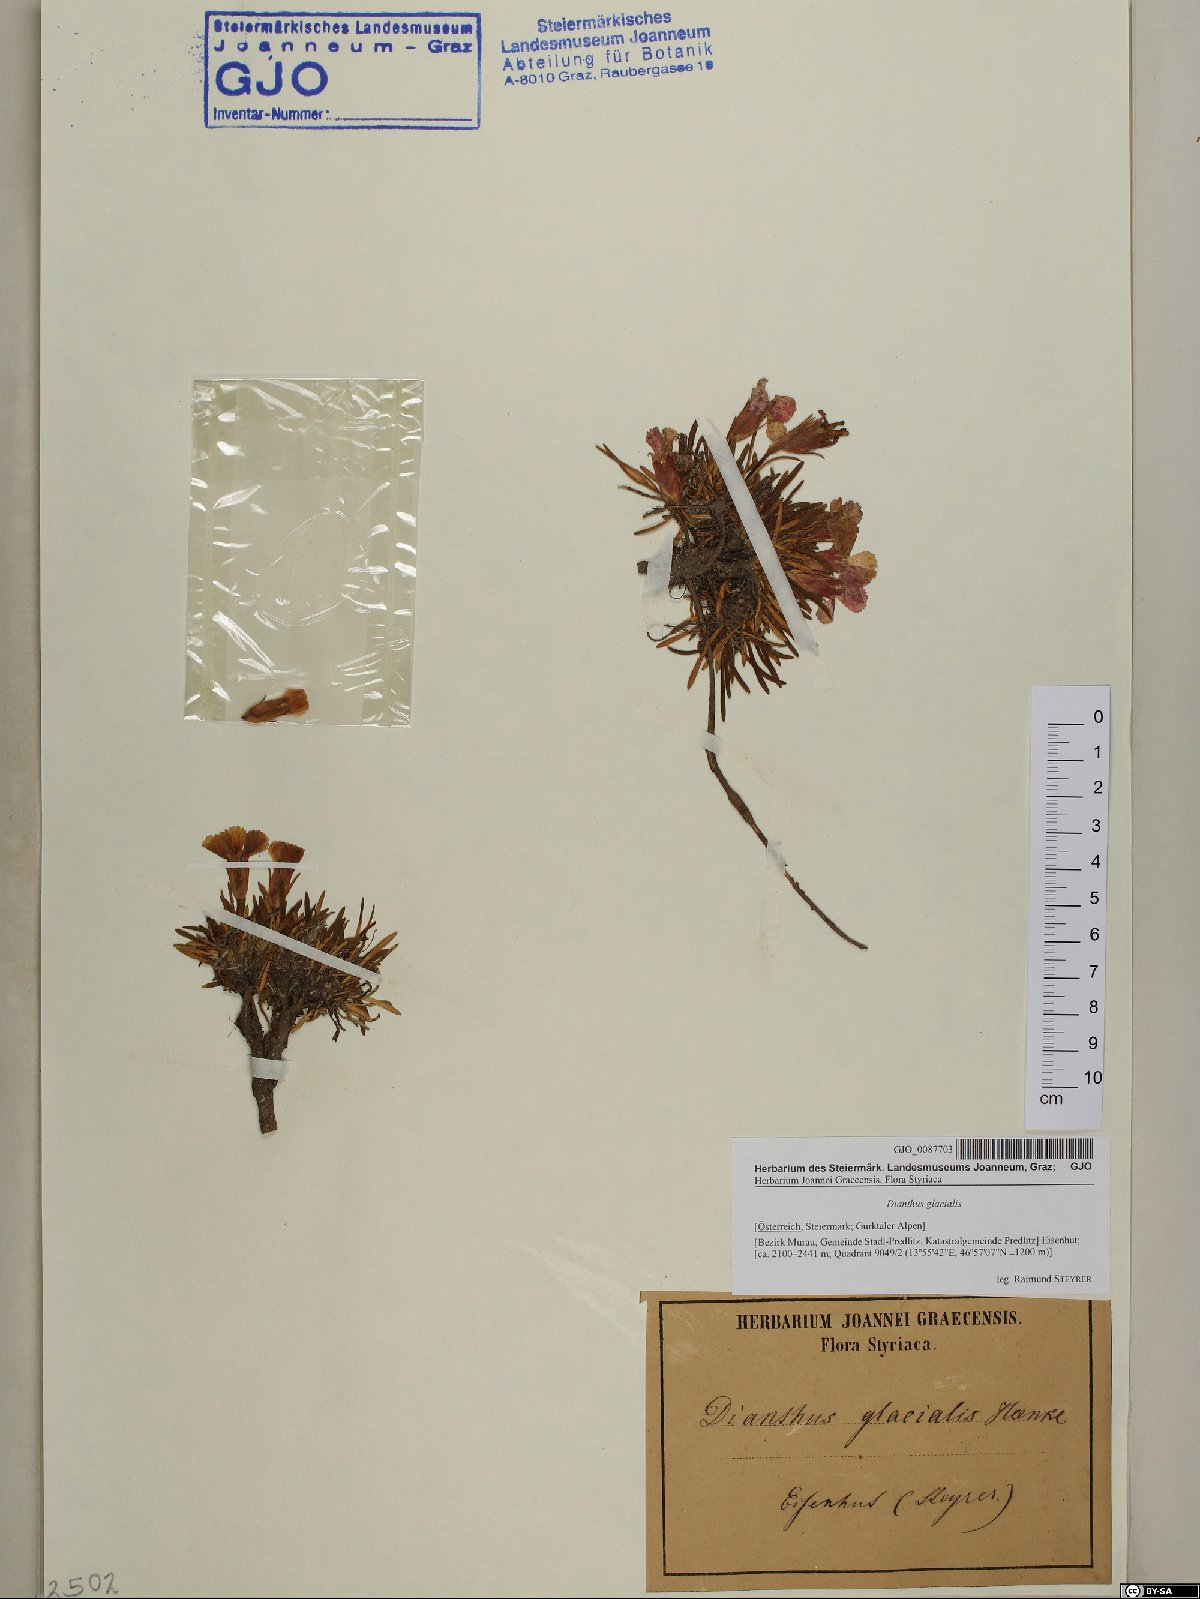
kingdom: Plantae
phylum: Tracheophyta
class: Magnoliopsida
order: Caryophyllales
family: Caryophyllaceae
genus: Dianthus
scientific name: Dianthus glacialis
